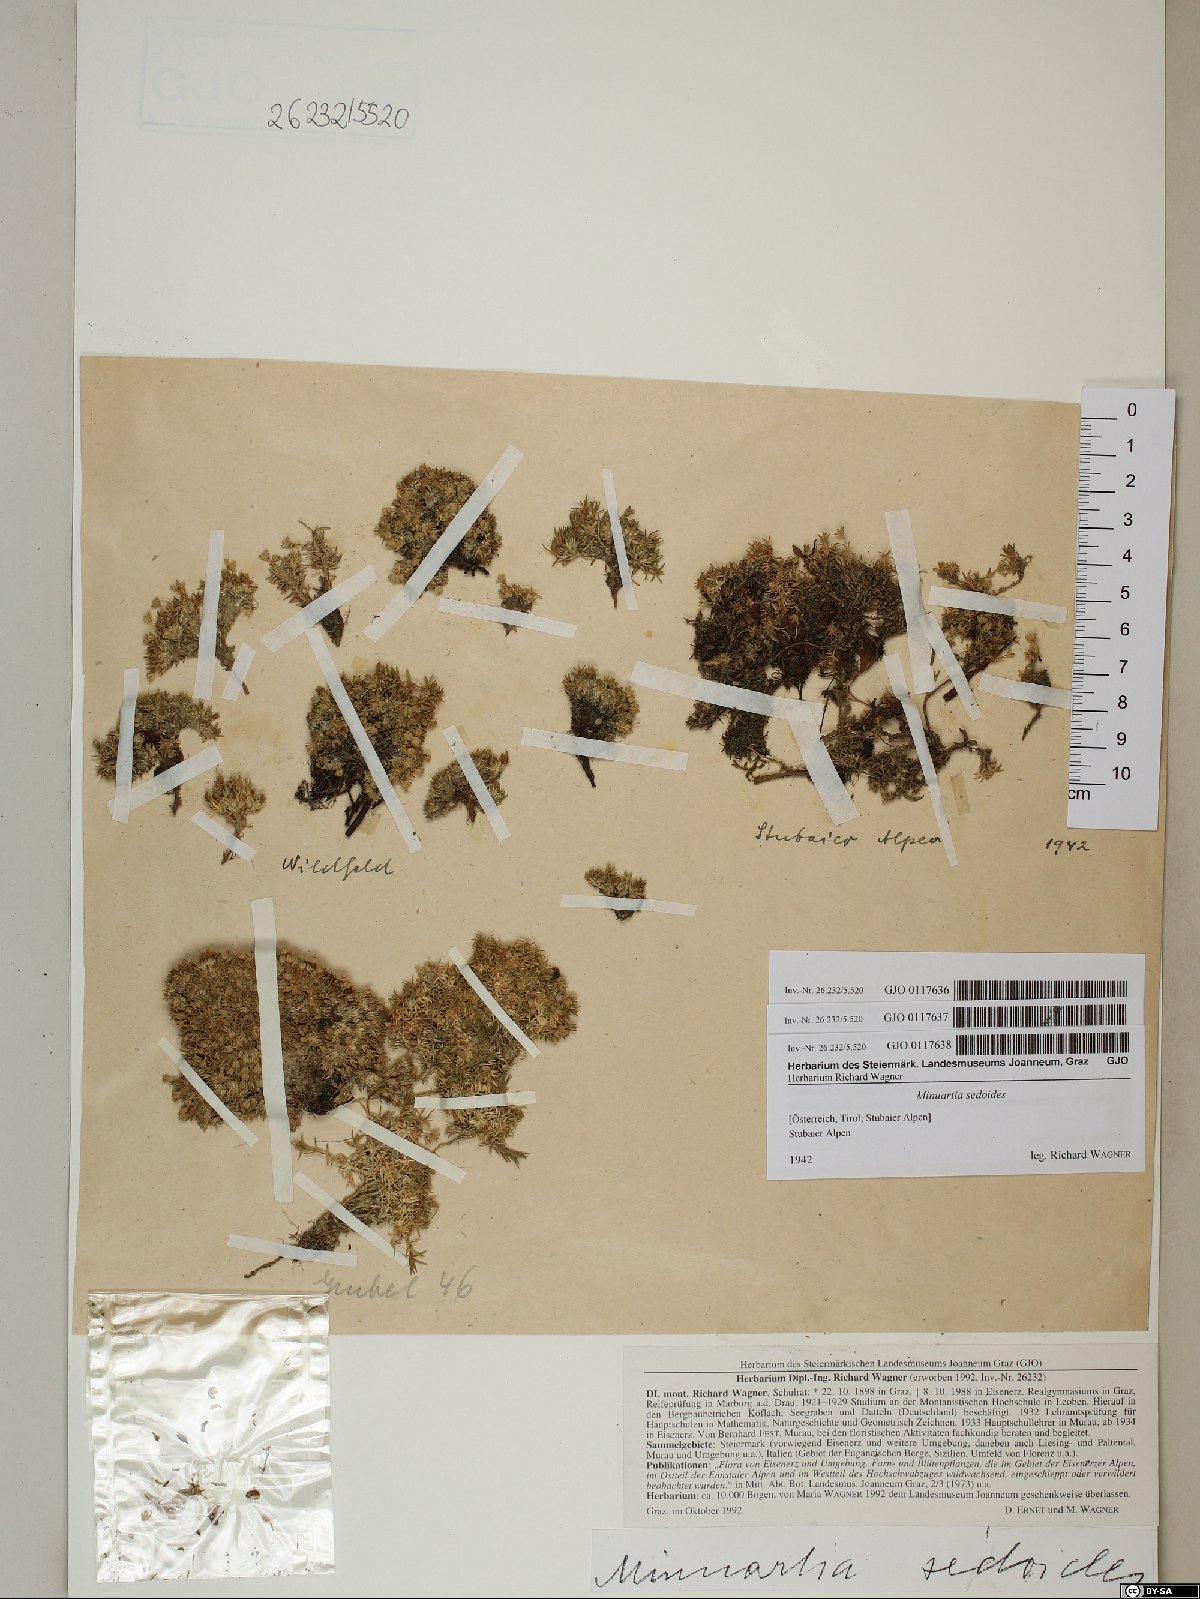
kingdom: Plantae
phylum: Tracheophyta
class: Magnoliopsida
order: Caryophyllales
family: Caryophyllaceae
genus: Cherleria
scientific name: Cherleria sedoides
